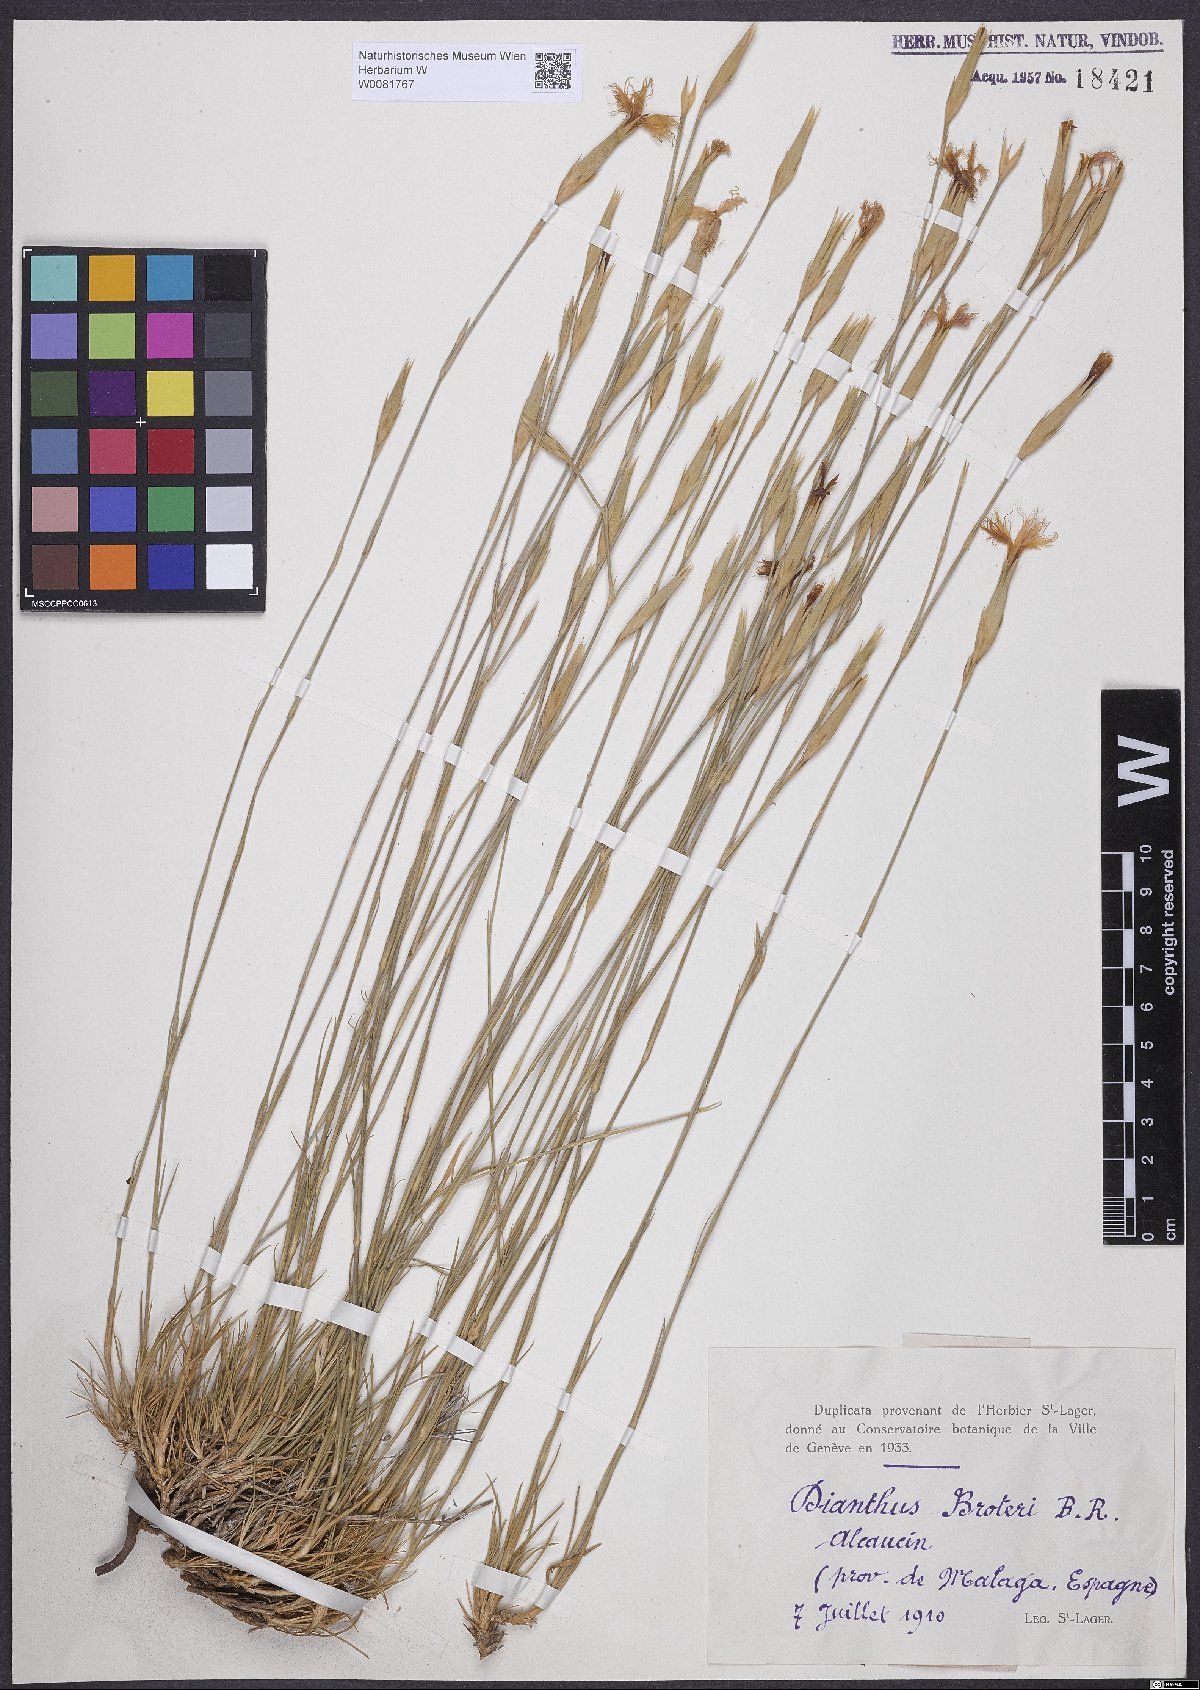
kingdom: Plantae
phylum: Tracheophyta
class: Magnoliopsida
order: Caryophyllales
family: Caryophyllaceae
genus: Dianthus
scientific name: Dianthus broteri
